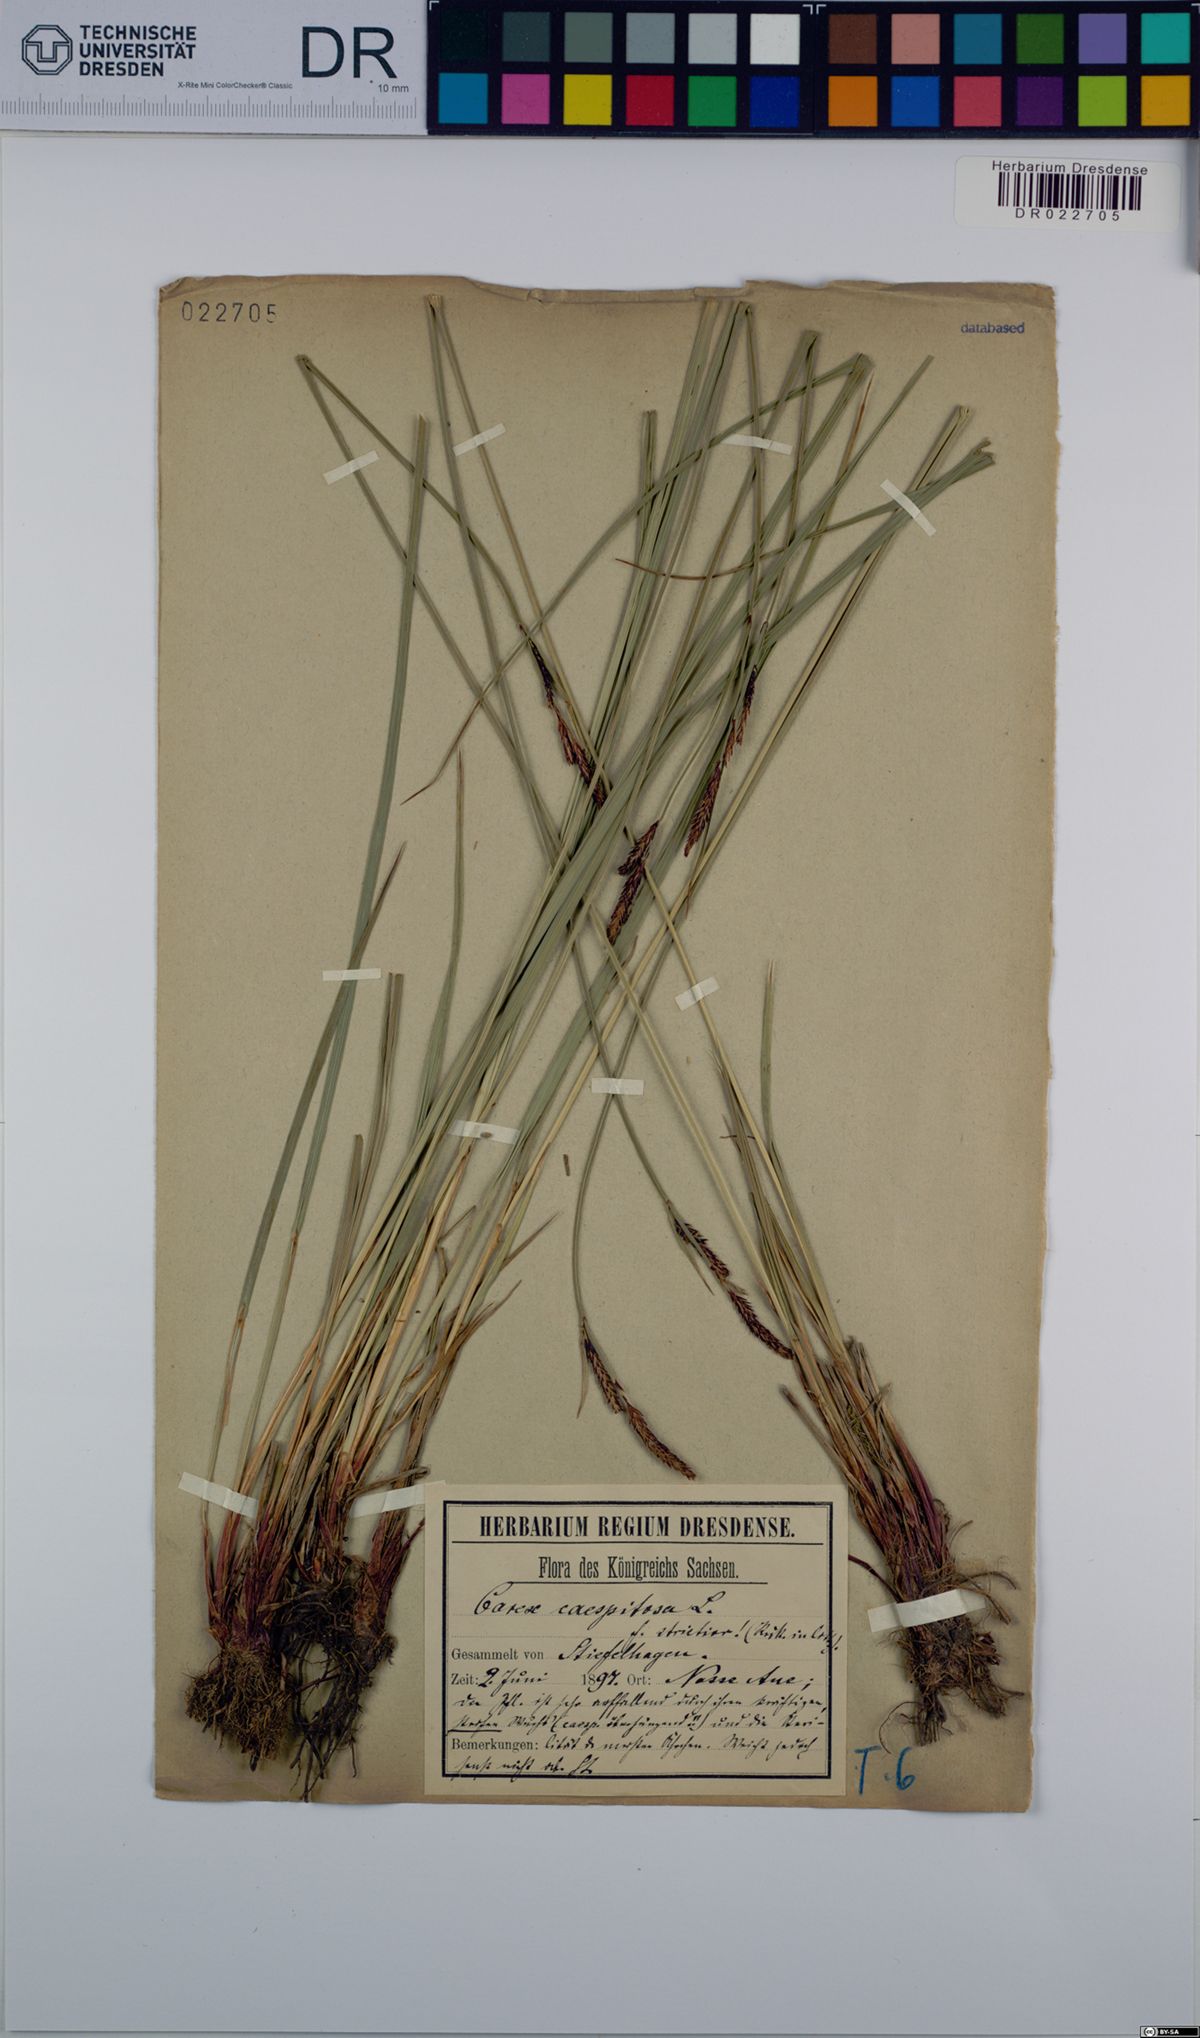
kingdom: Plantae
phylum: Tracheophyta
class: Liliopsida
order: Poales
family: Cyperaceae
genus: Carex
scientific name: Carex cespitosa
